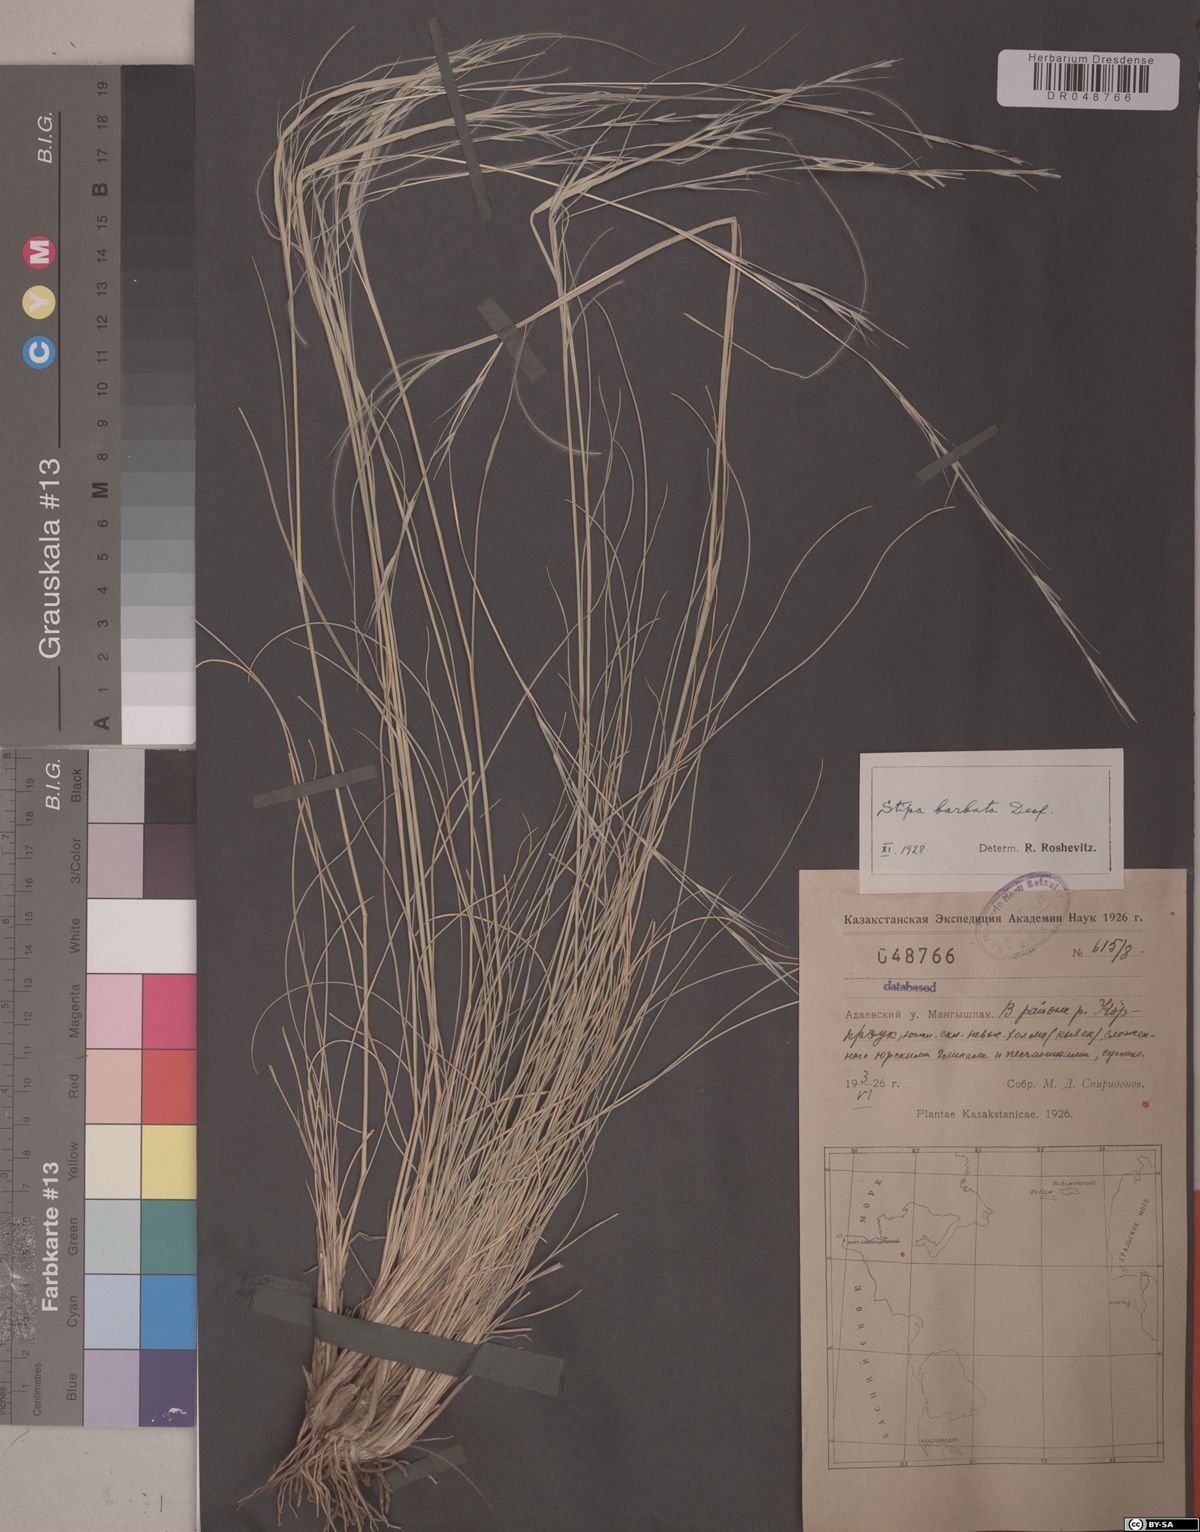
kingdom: Plantae
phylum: Tracheophyta
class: Liliopsida
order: Poales
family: Poaceae
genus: Stipa
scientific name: Stipa barbata
